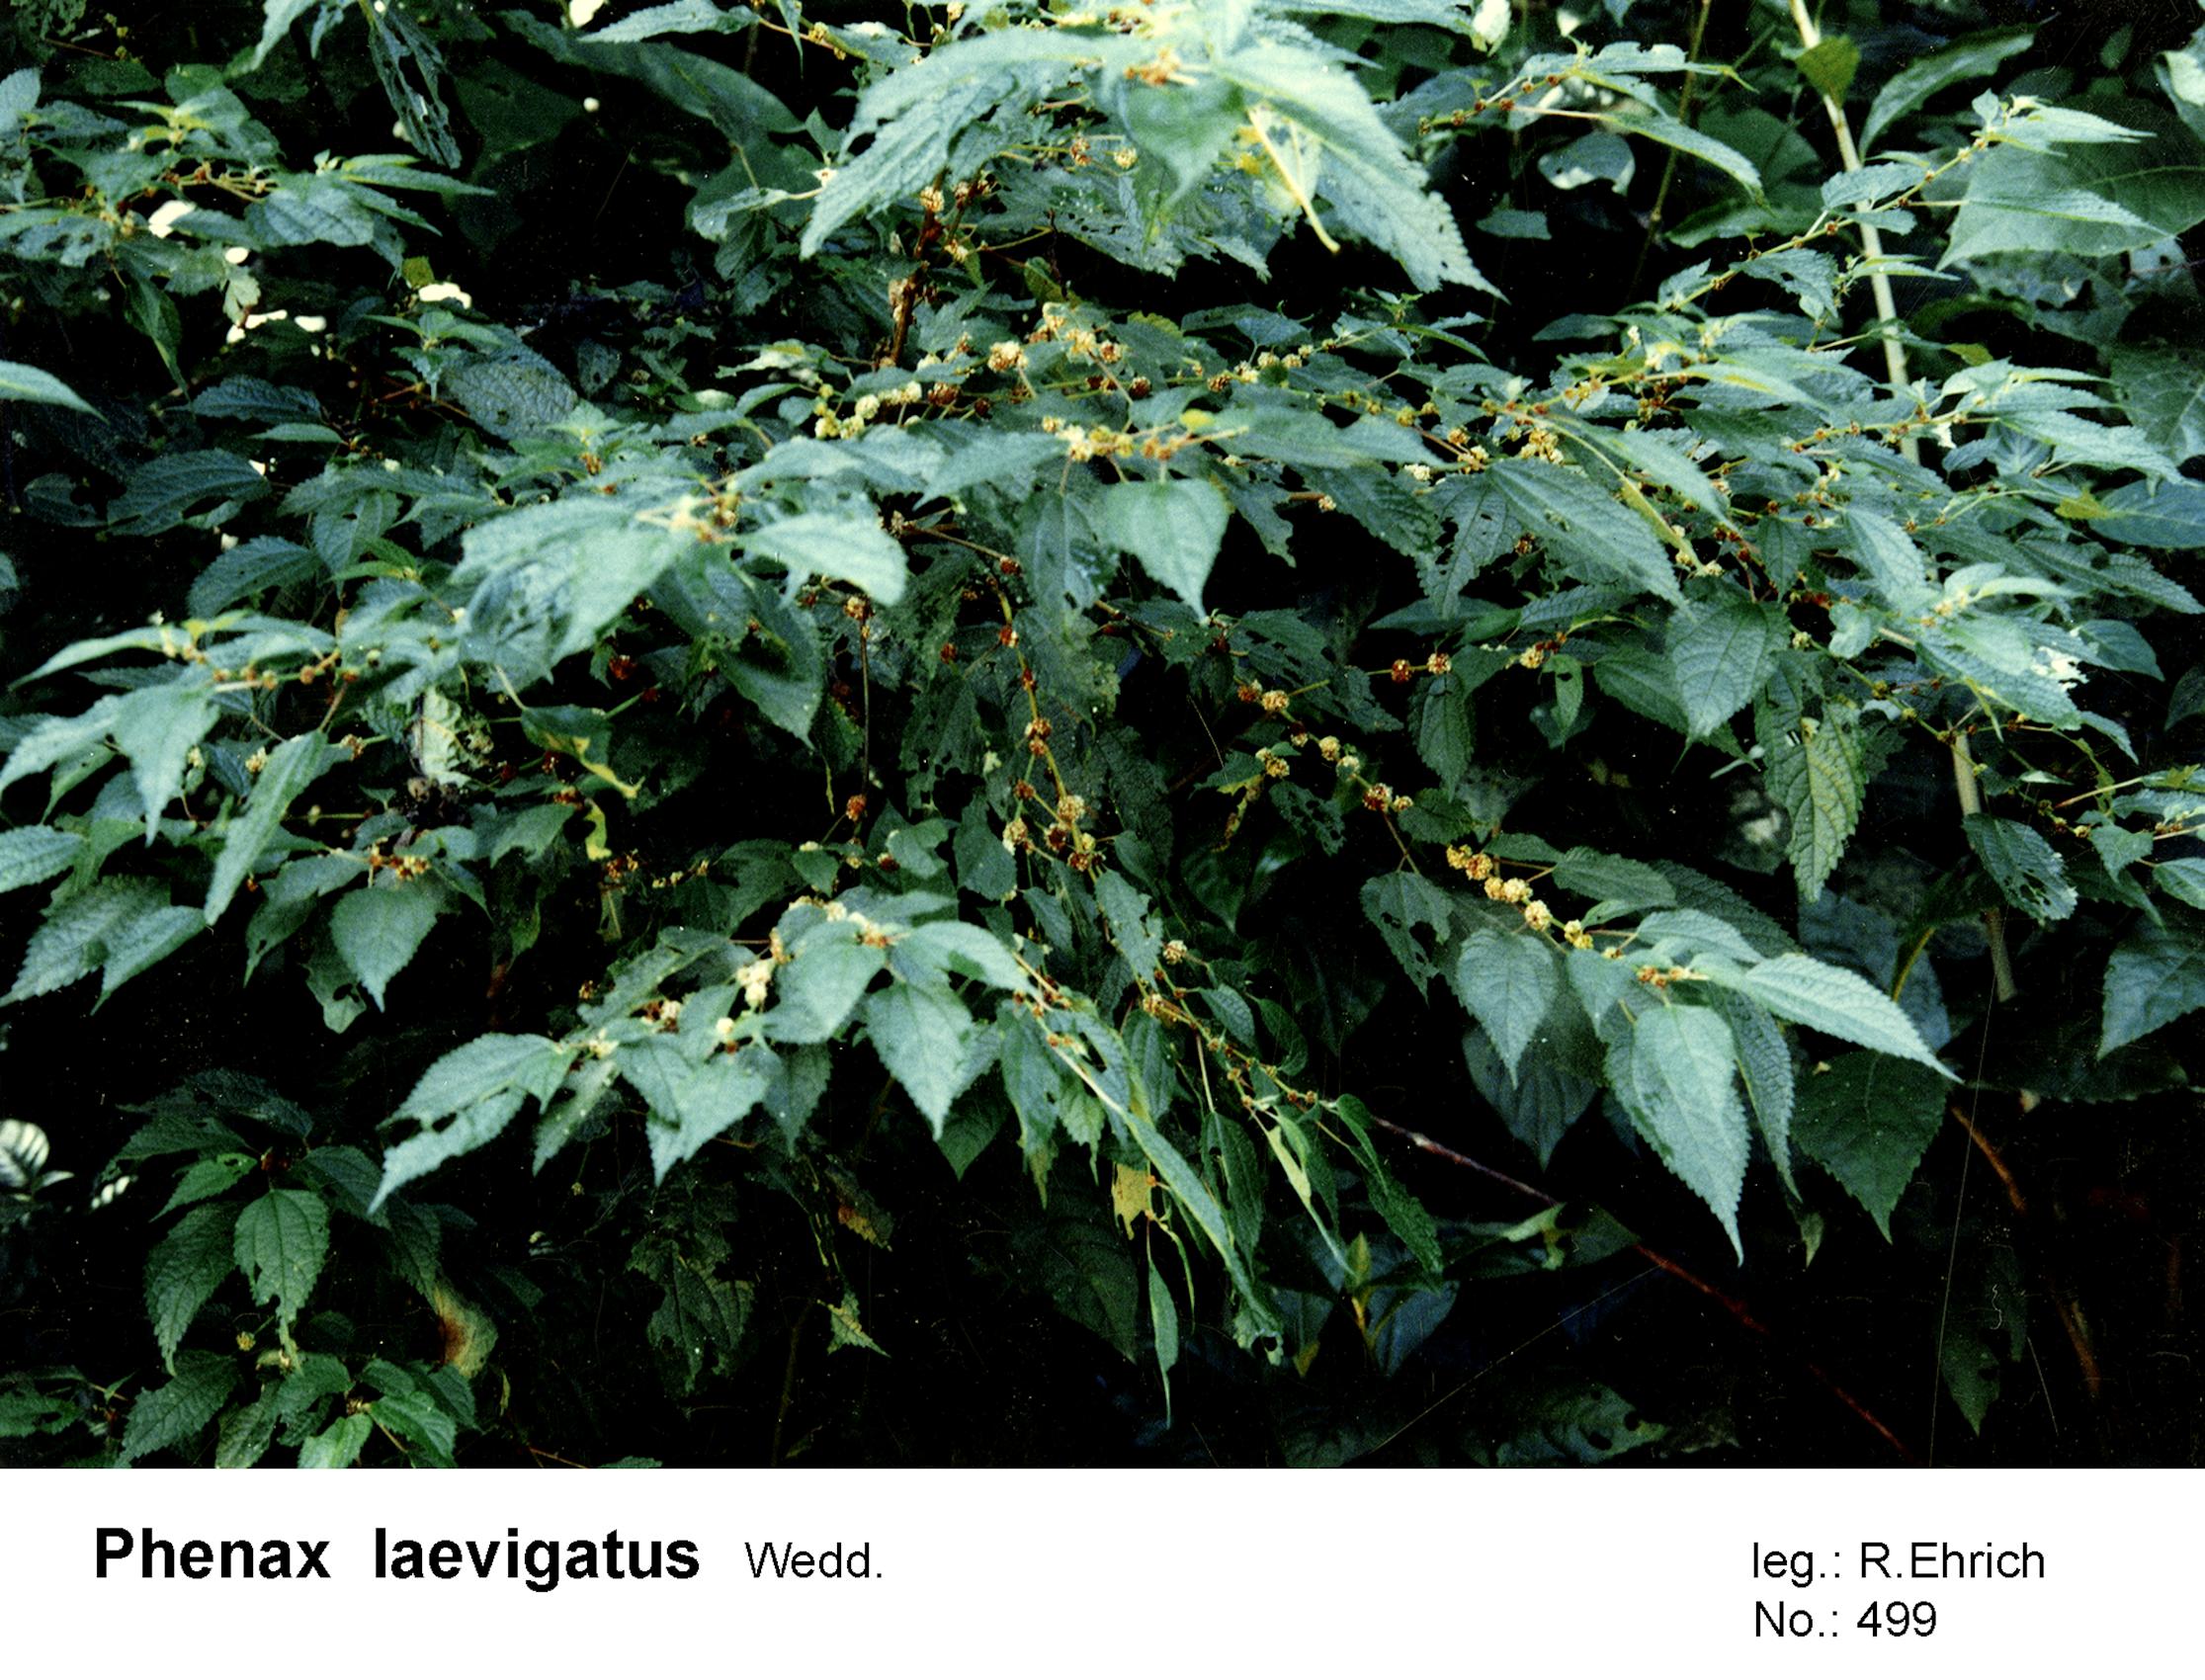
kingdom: Plantae
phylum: Tracheophyta
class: Magnoliopsida
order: Rosales
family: Urticaceae
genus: Phenax
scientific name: Phenax laevigatus
